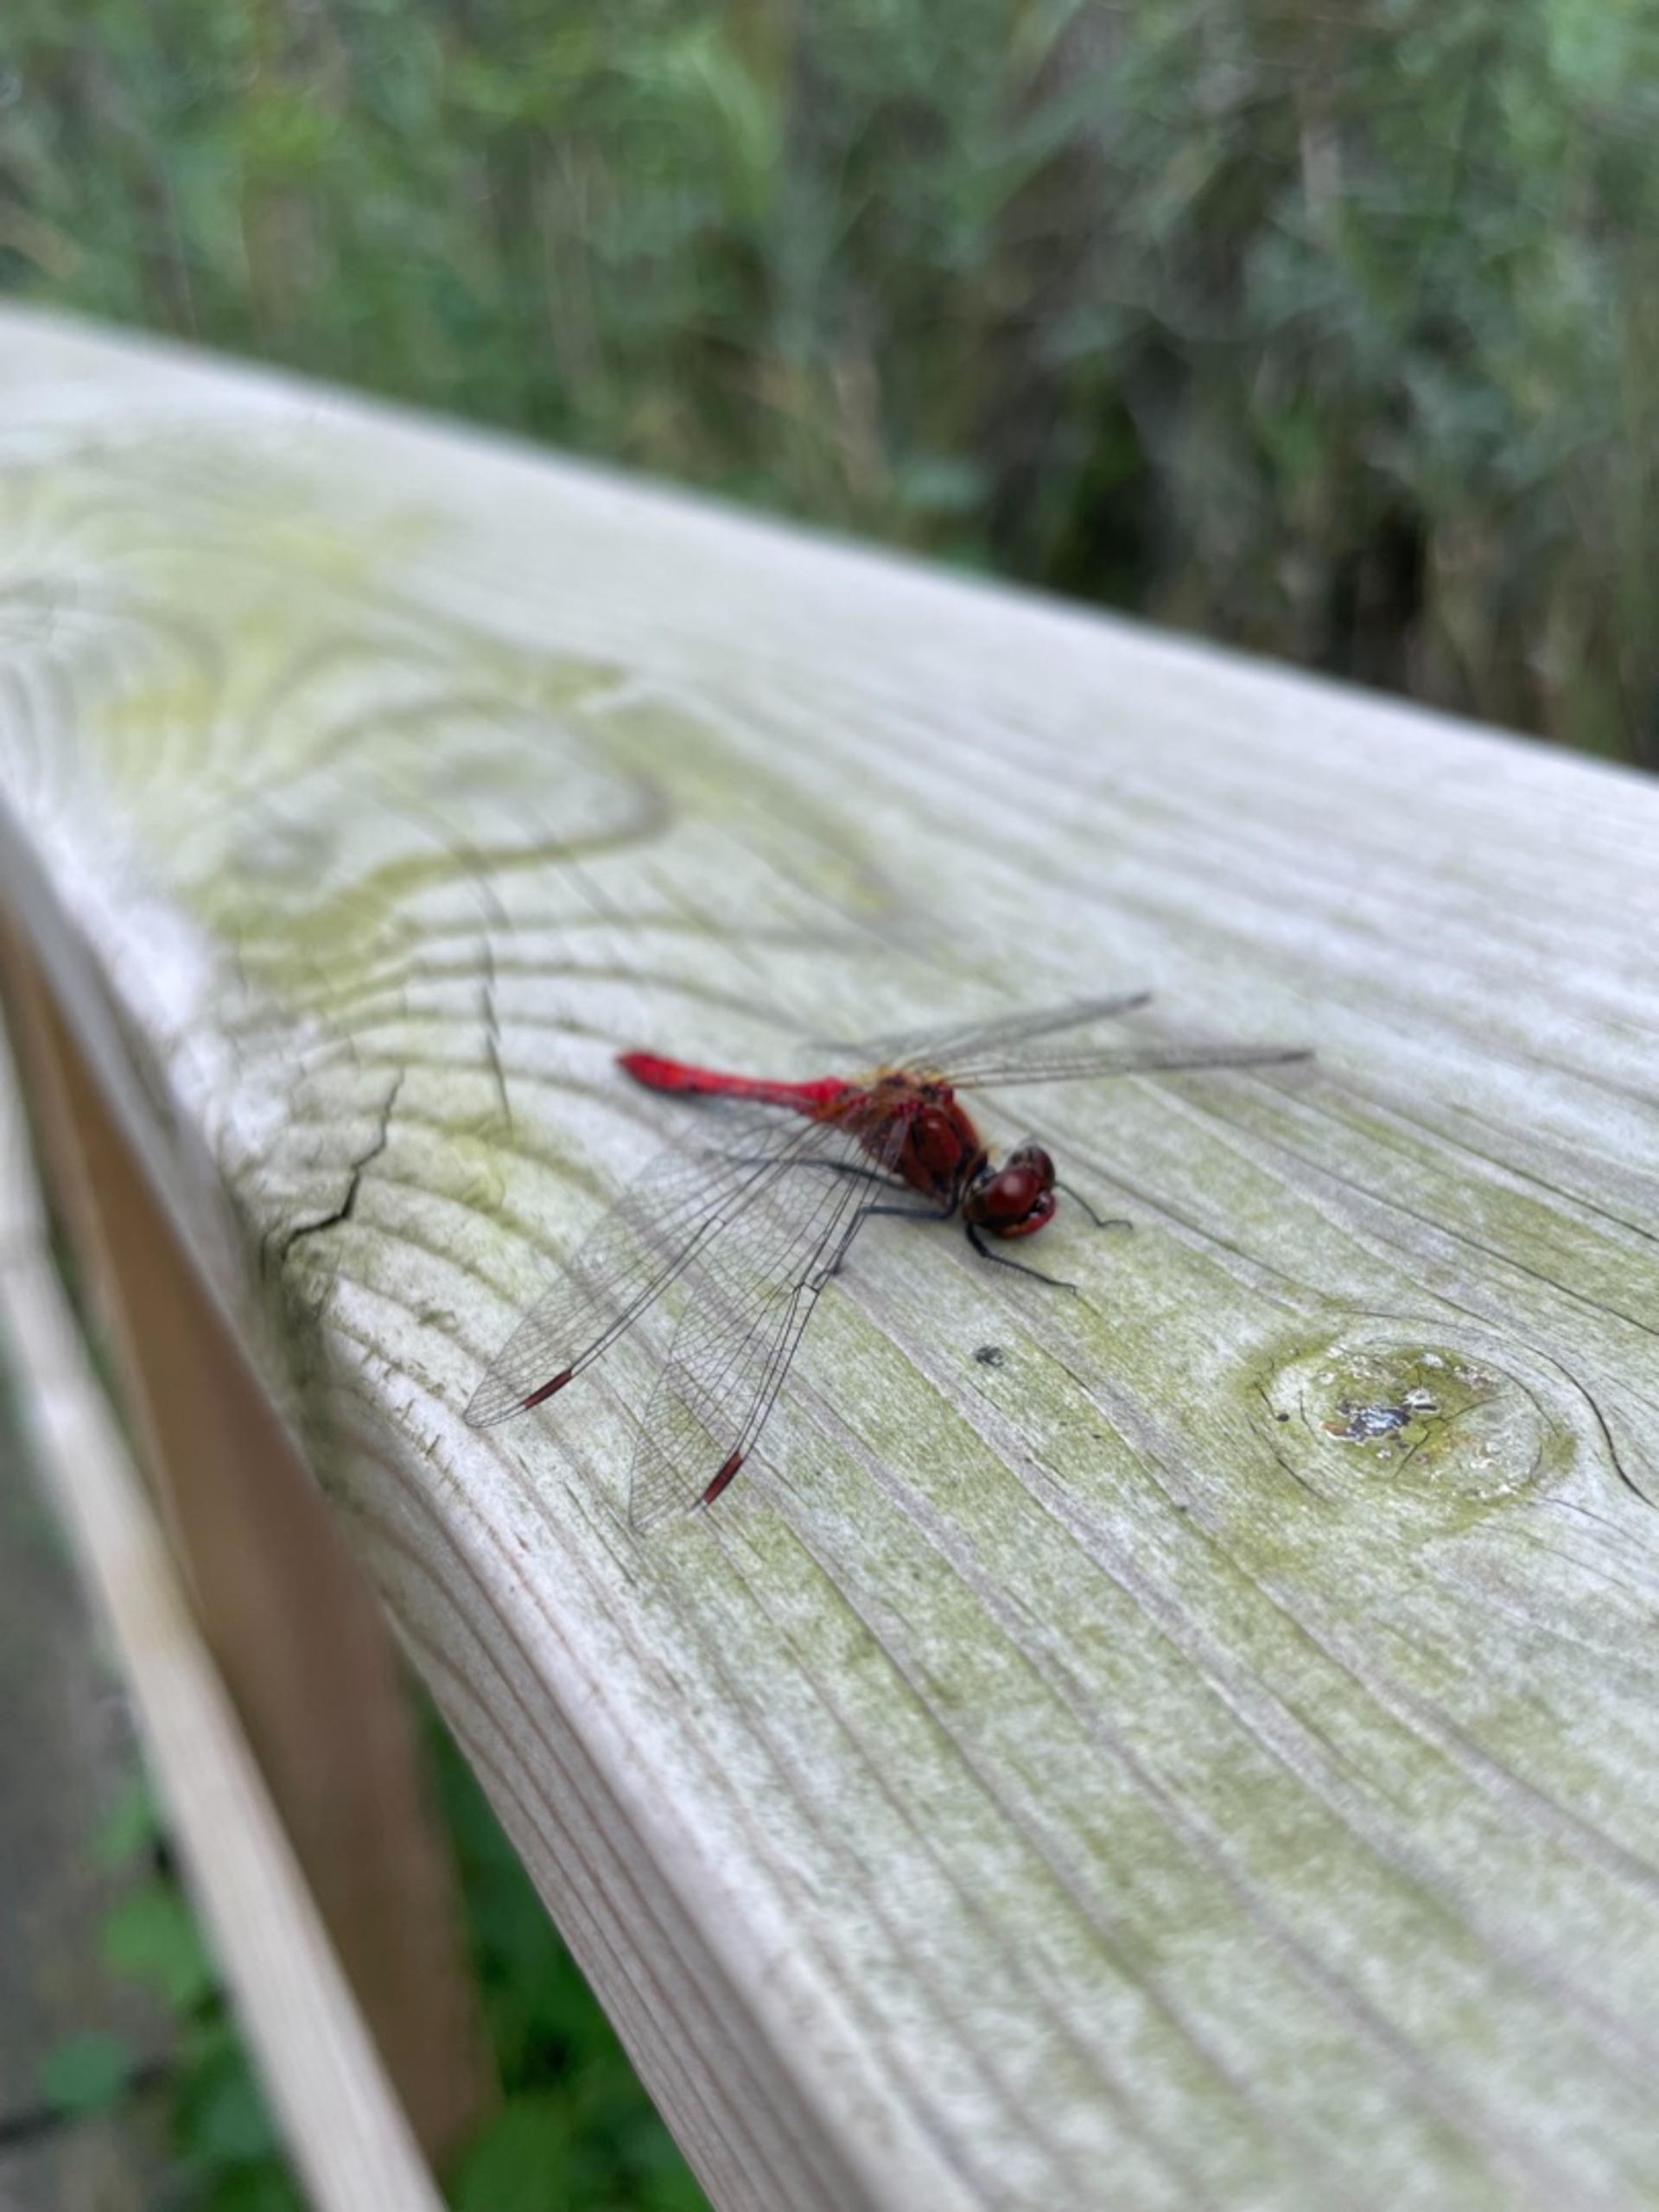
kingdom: Animalia
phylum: Arthropoda
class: Insecta
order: Odonata
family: Libellulidae
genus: Sympetrum
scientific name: Sympetrum sanguineum
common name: Blodrød hedelibel
